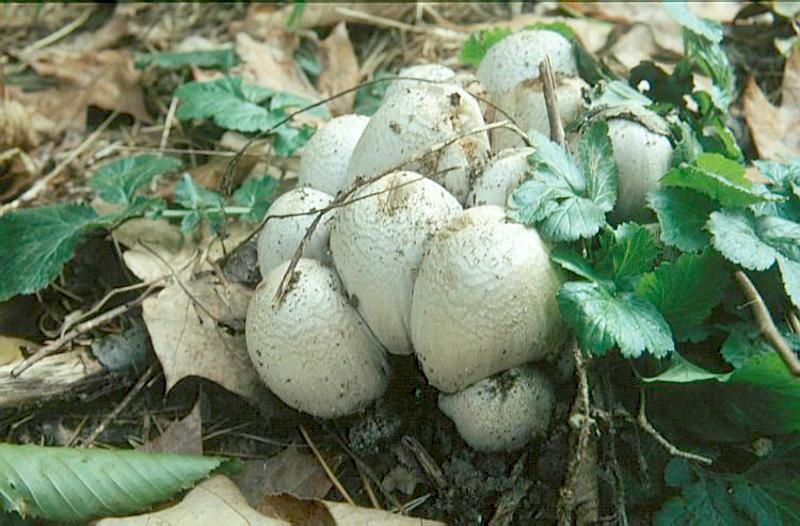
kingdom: Fungi
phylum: Basidiomycota
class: Agaricomycetes
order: Agaricales
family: Psathyrellaceae
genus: Coprinopsis
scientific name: Coprinopsis atramentaria
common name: Common ink-cap
